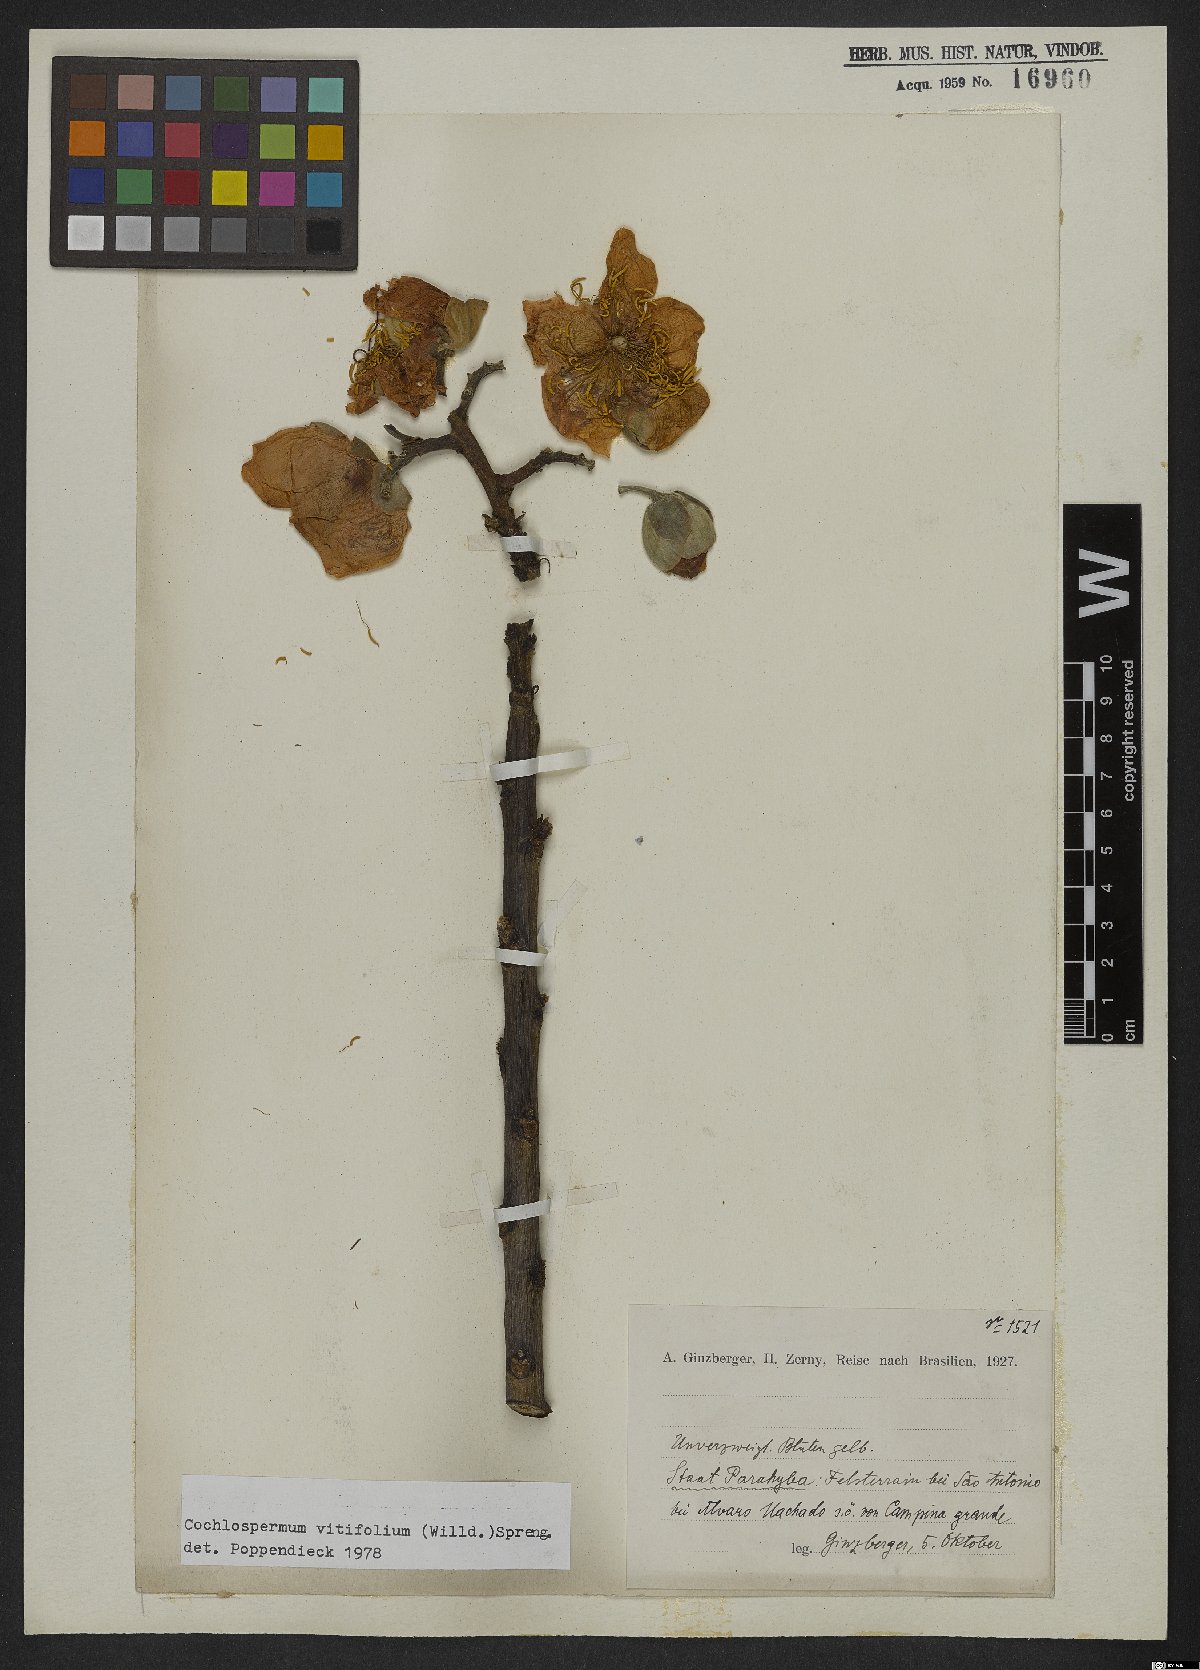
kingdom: Plantae
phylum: Tracheophyta
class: Magnoliopsida
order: Malvales
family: Cochlospermaceae
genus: Cochlospermum
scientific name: Cochlospermum vitifolium
